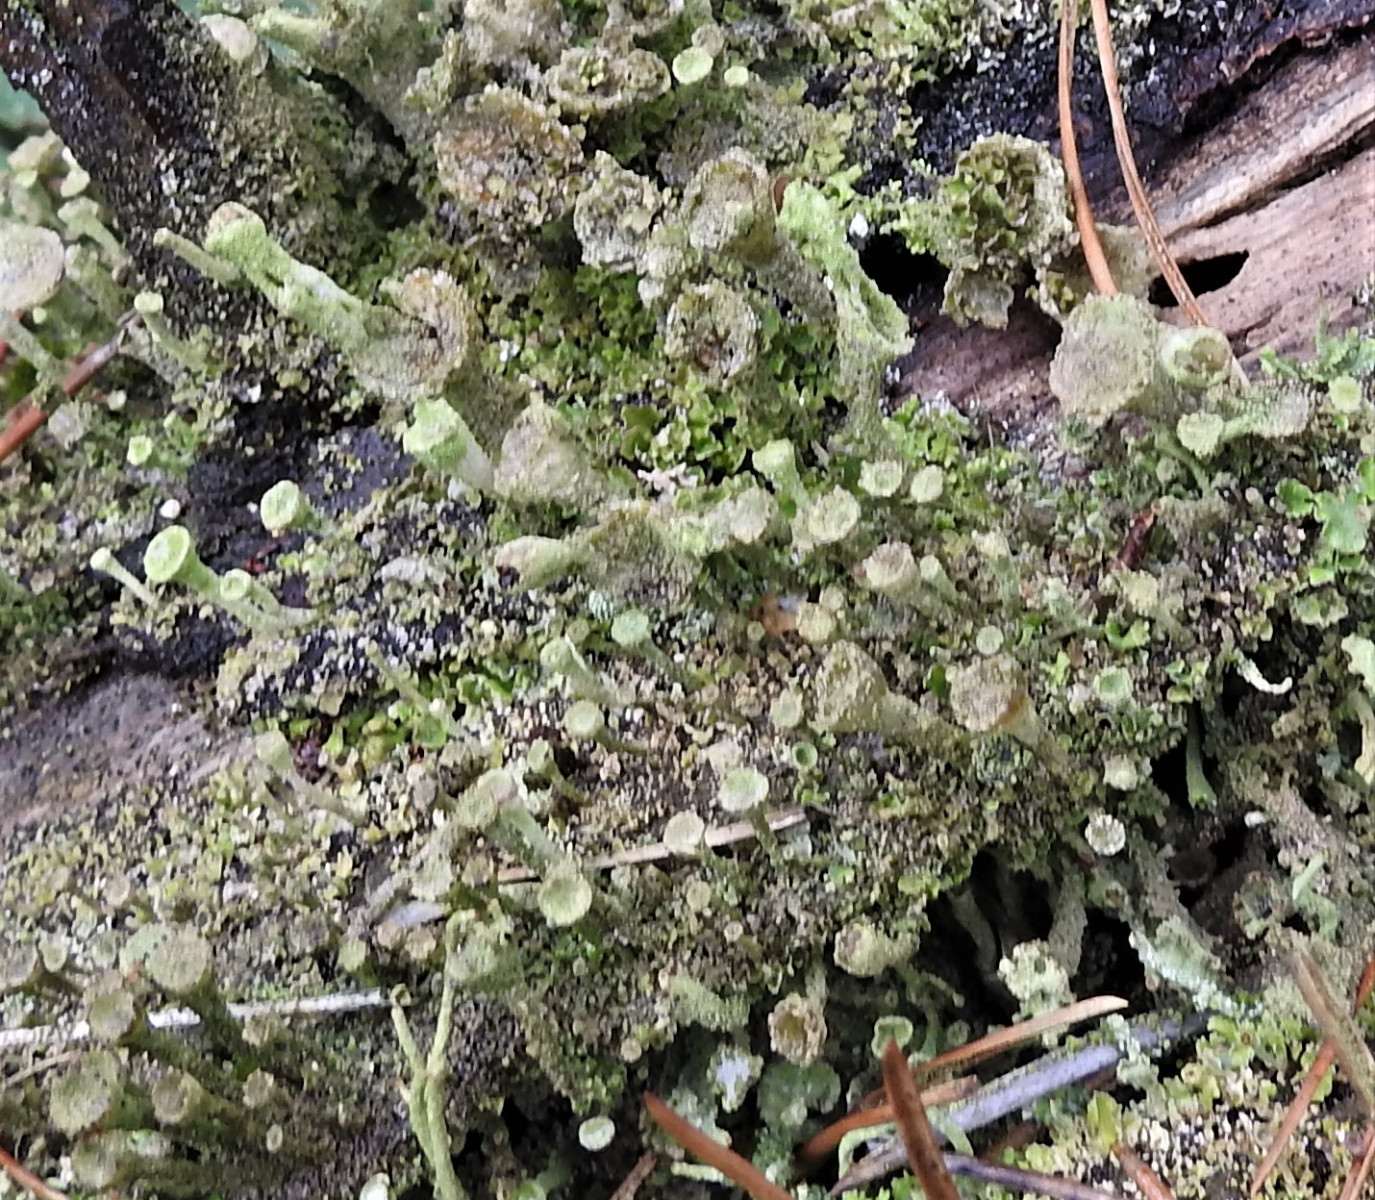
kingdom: Fungi
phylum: Ascomycota
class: Lecanoromycetes
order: Lecanorales
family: Cladoniaceae
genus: Cladonia
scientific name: Cladonia
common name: brungrøn bægerlav
